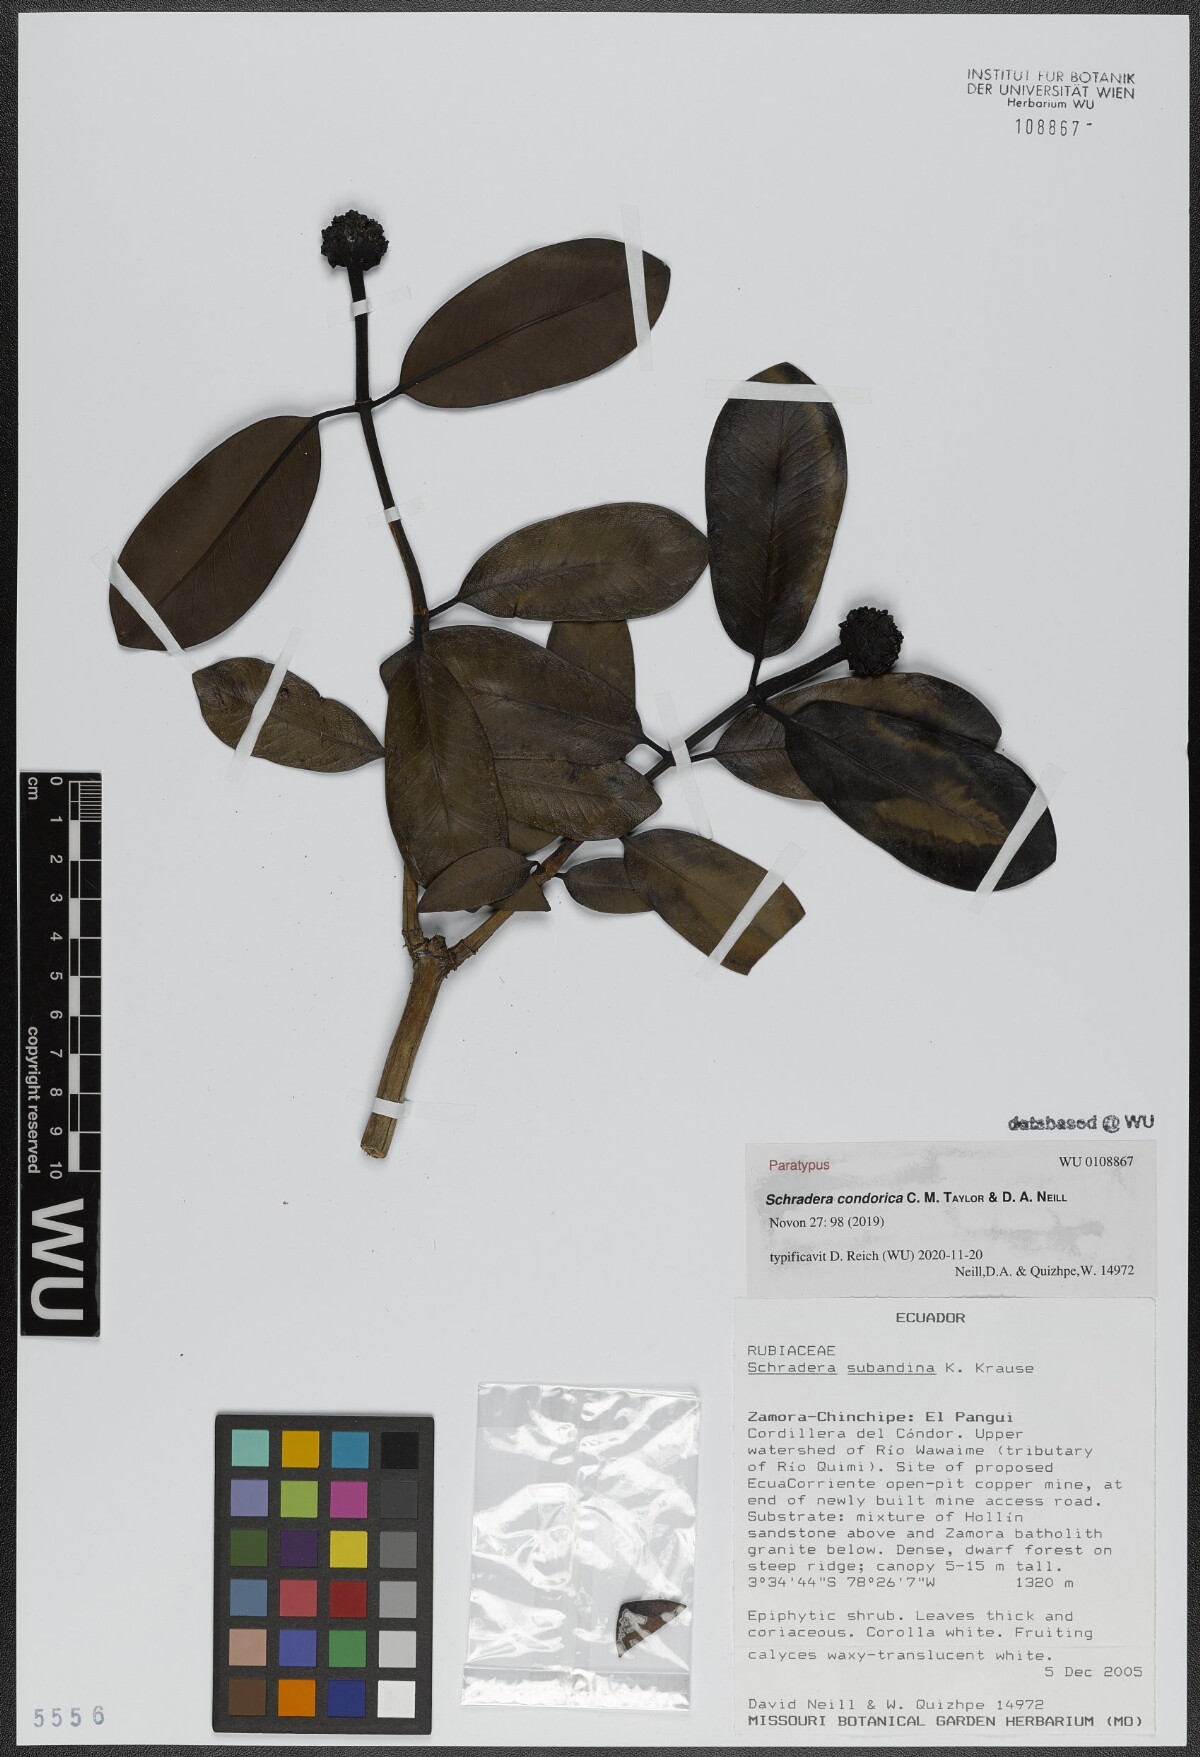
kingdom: Plantae
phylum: Tracheophyta
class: Magnoliopsida
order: Gentianales
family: Rubiaceae
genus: Schradera
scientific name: Schradera condorica
